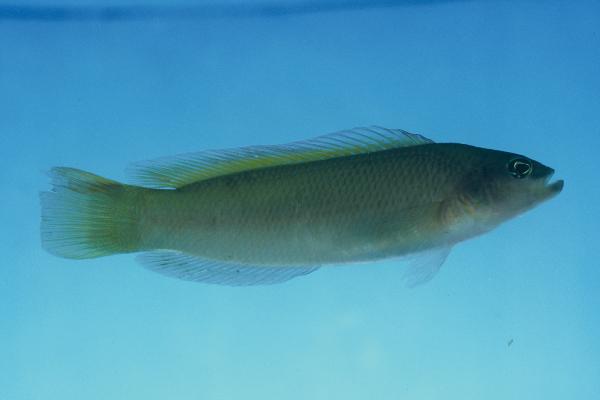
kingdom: Animalia
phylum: Chordata
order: Perciformes
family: Pseudochromidae
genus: Pseudochromis
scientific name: Pseudochromis natalensis
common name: Natal dottyback
